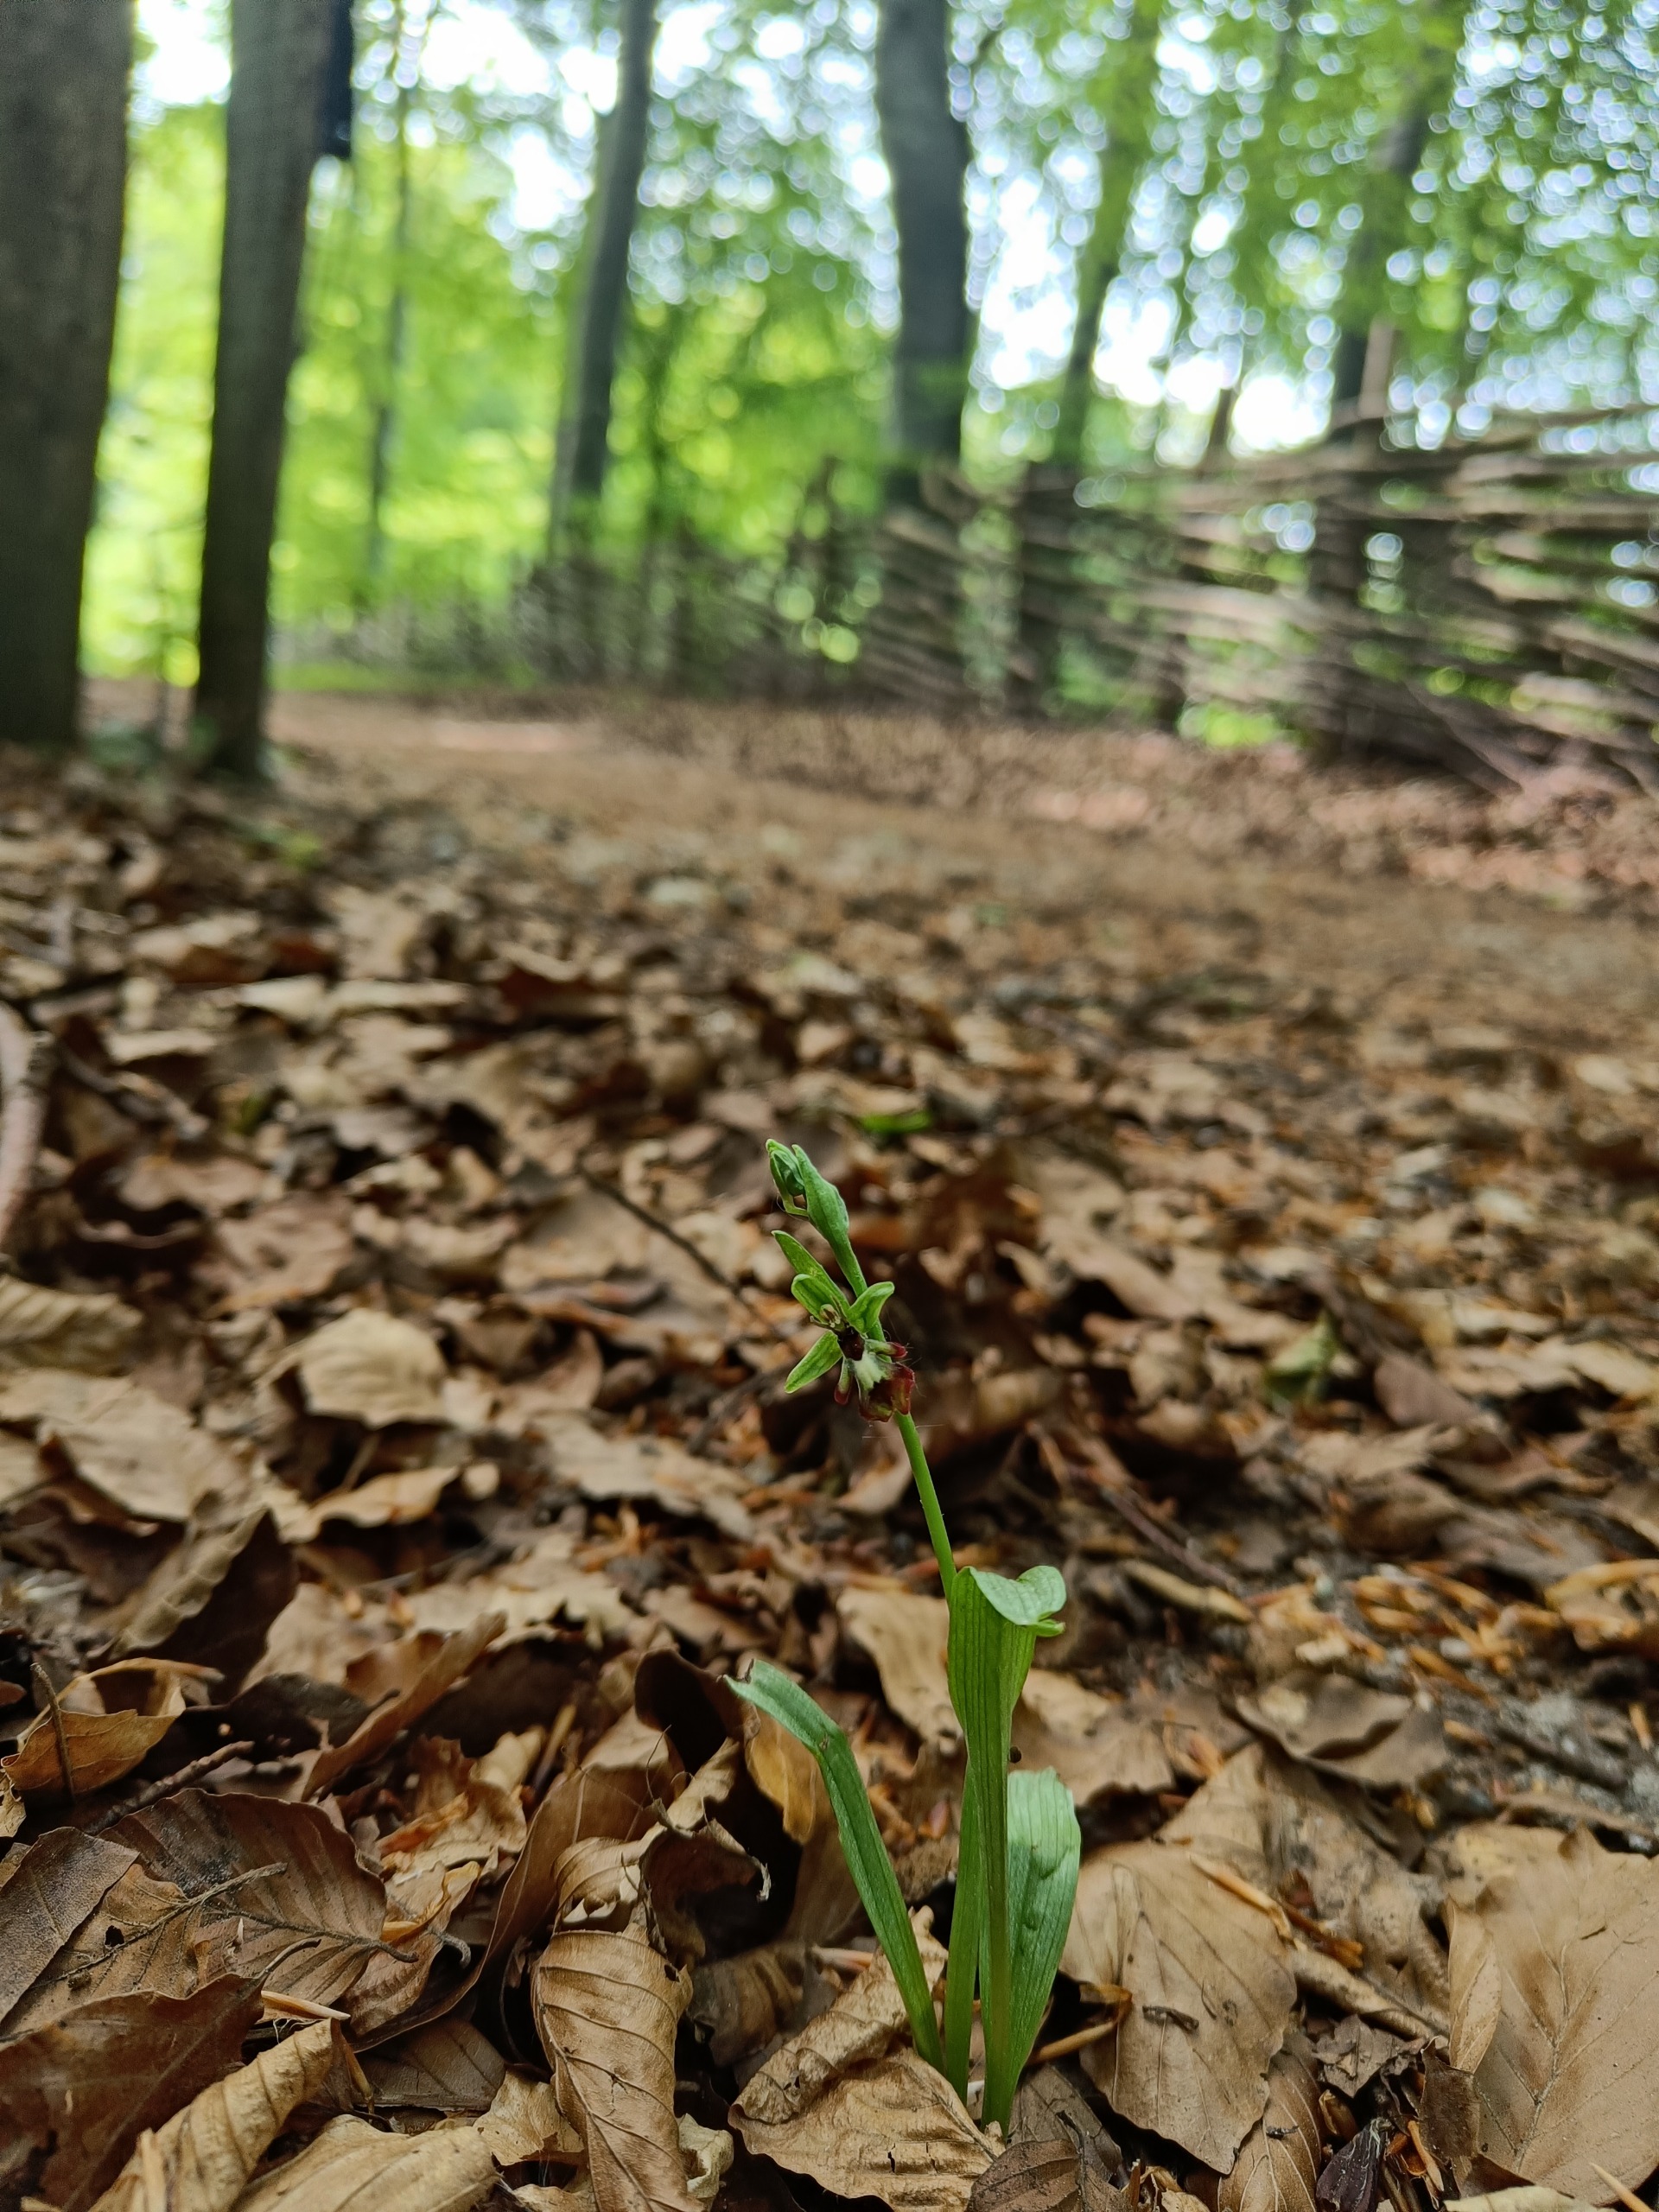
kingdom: Plantae
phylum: Tracheophyta
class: Liliopsida
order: Asparagales
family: Orchidaceae
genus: Ophrys
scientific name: Ophrys insectifera
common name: Flueblomst
